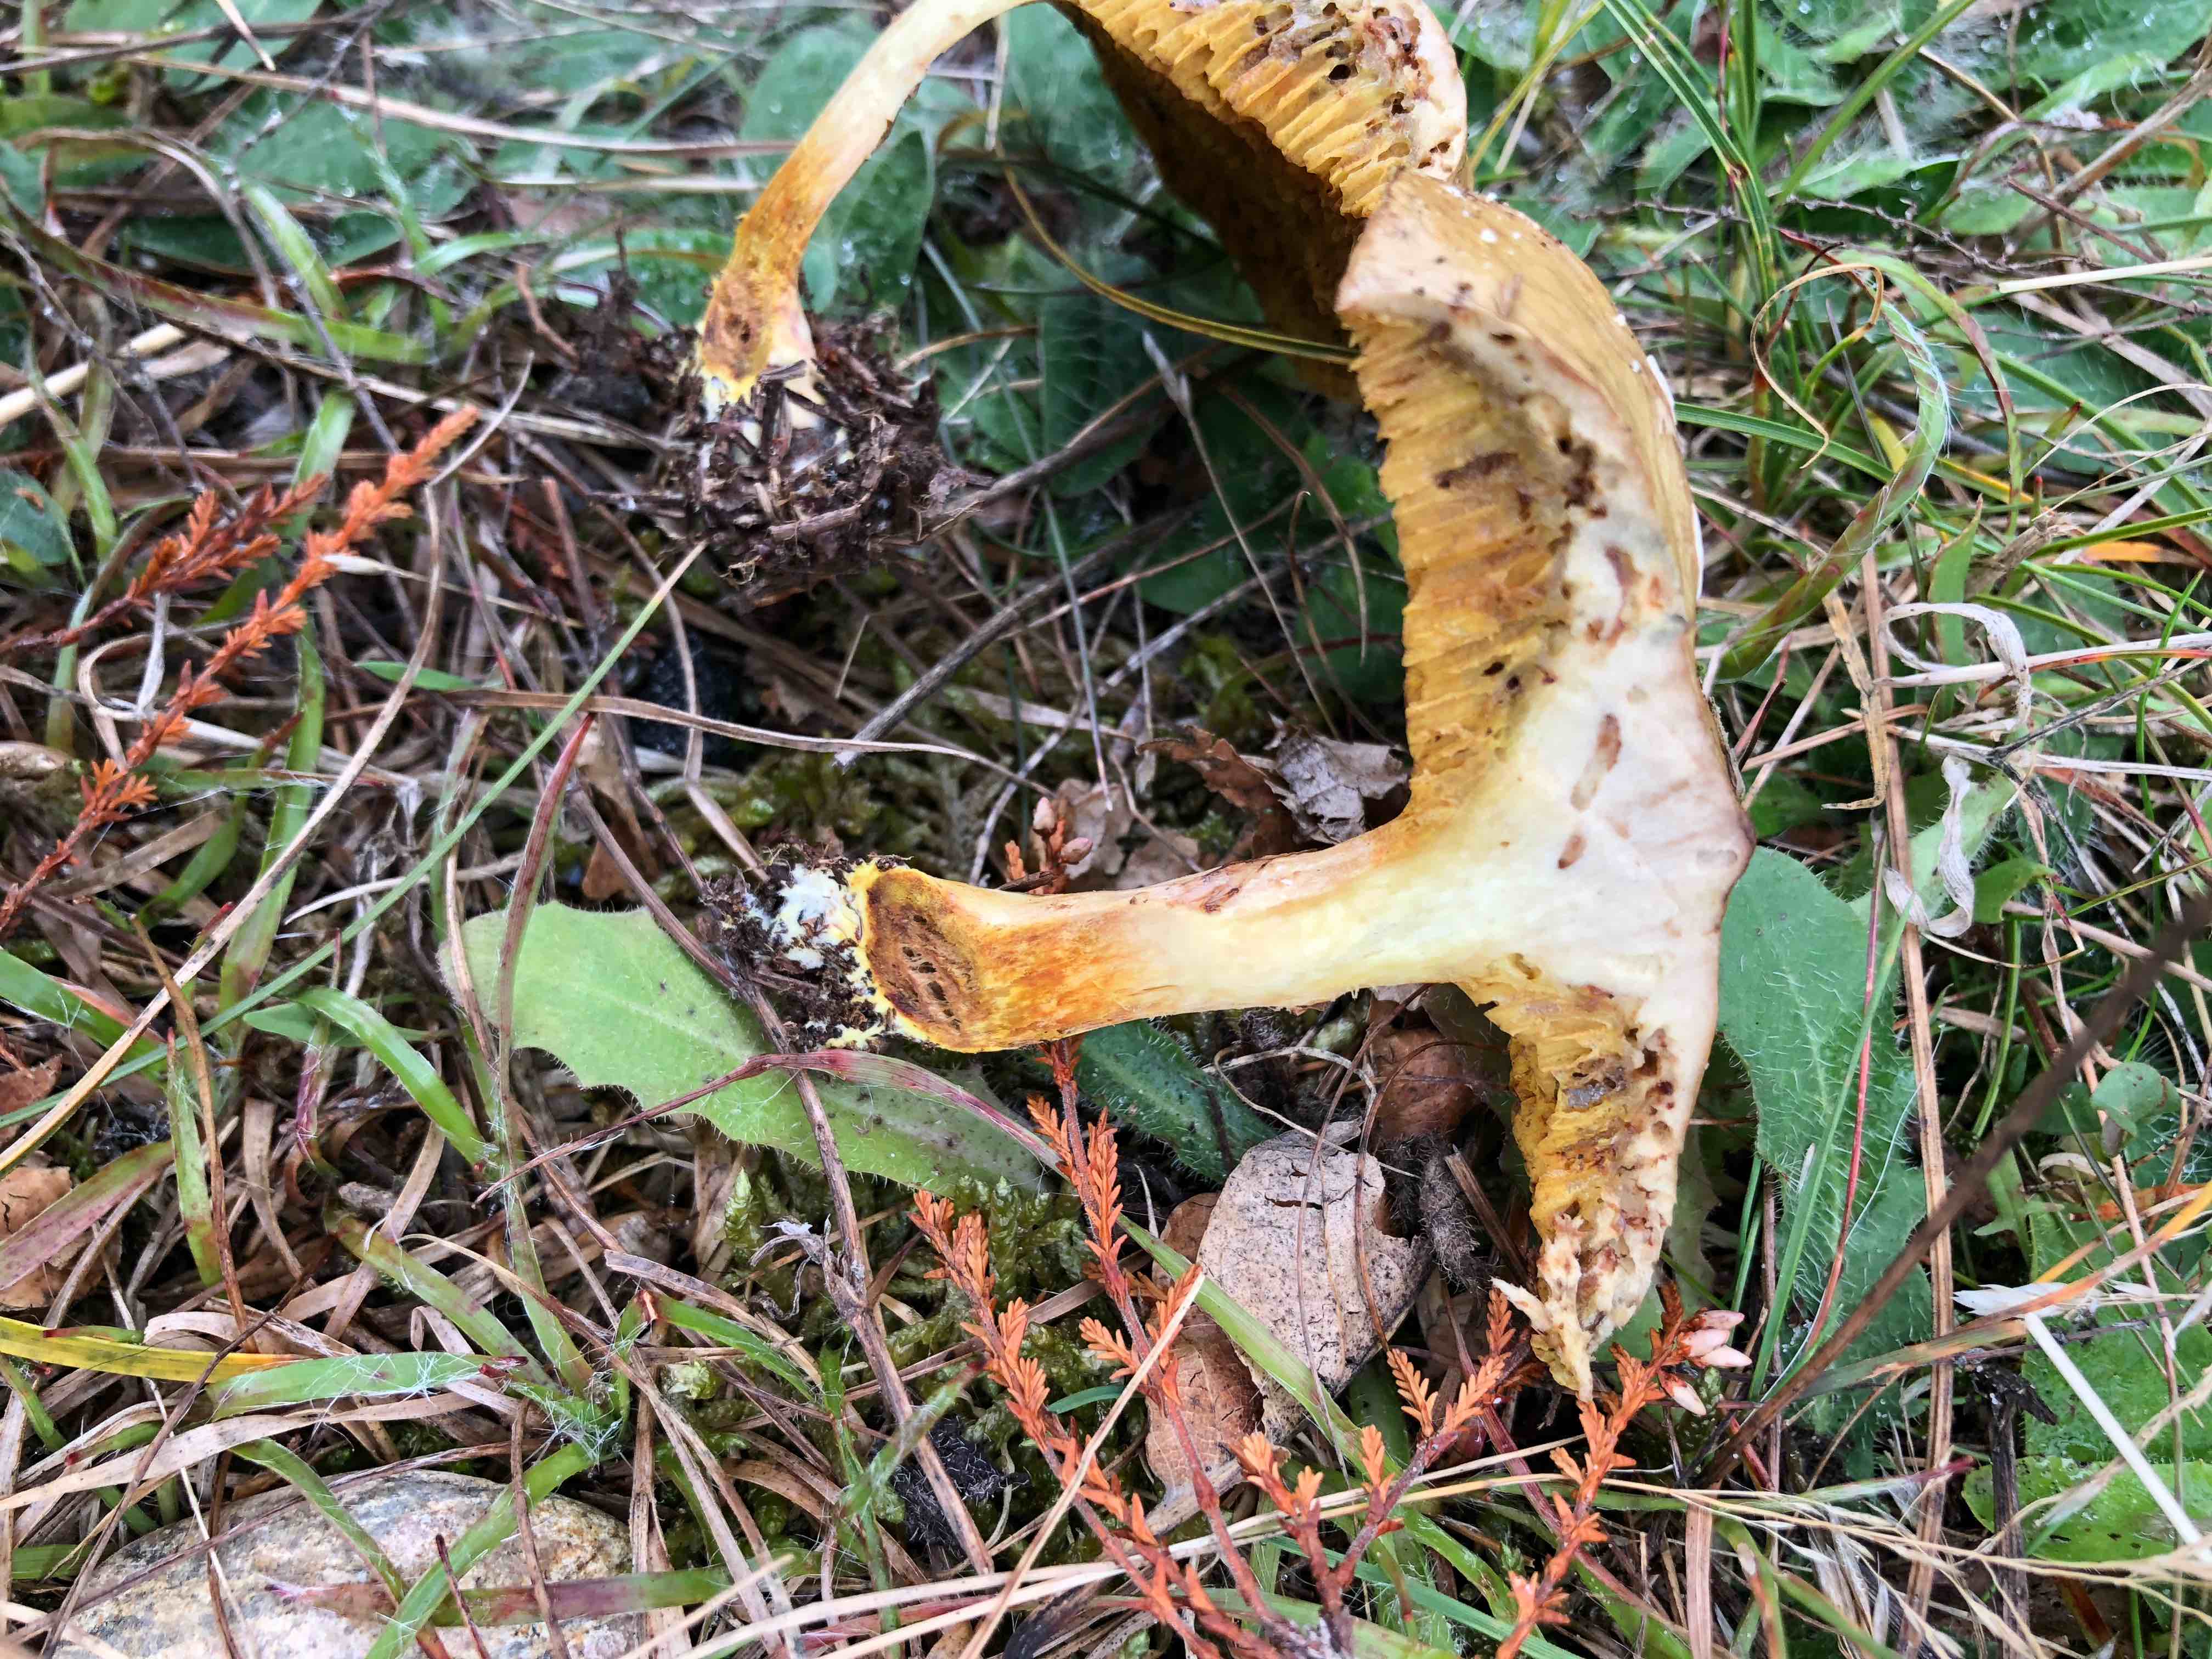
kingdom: Fungi
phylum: Basidiomycota
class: Agaricomycetes
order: Boletales
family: Suillaceae
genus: Suillus
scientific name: Suillus flavidus
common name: mose-slimrørhat
